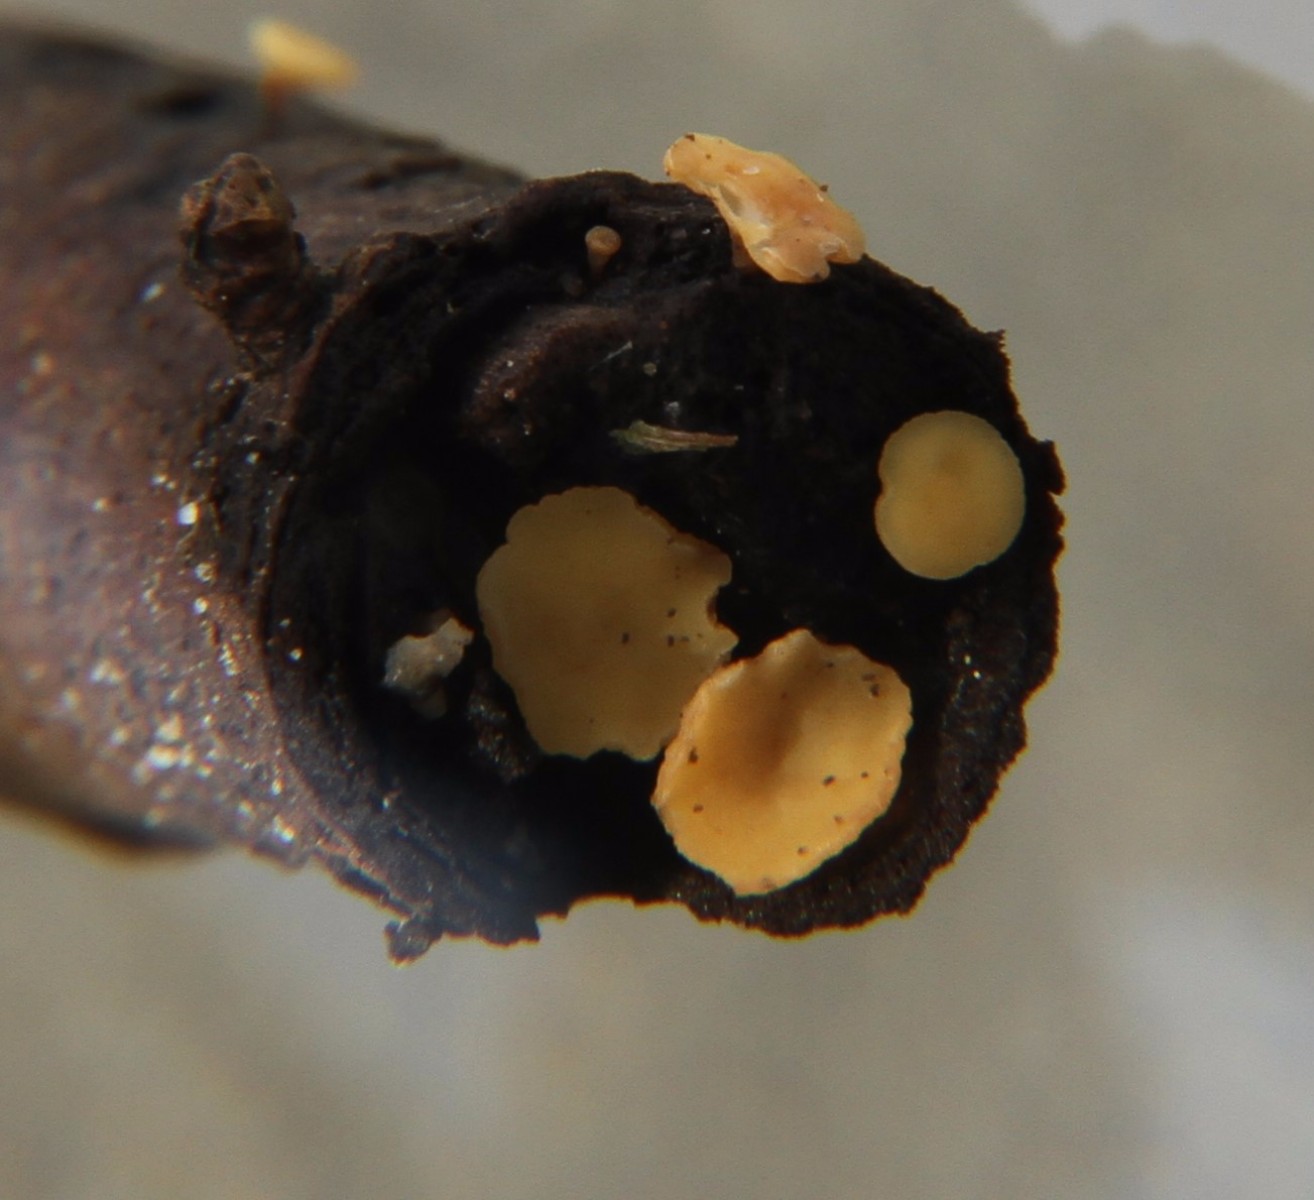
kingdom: Fungi
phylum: Ascomycota
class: Leotiomycetes
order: Helotiales
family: Helotiaceae
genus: Hymenoscyphus
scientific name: Hymenoscyphus
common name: stilkskive
